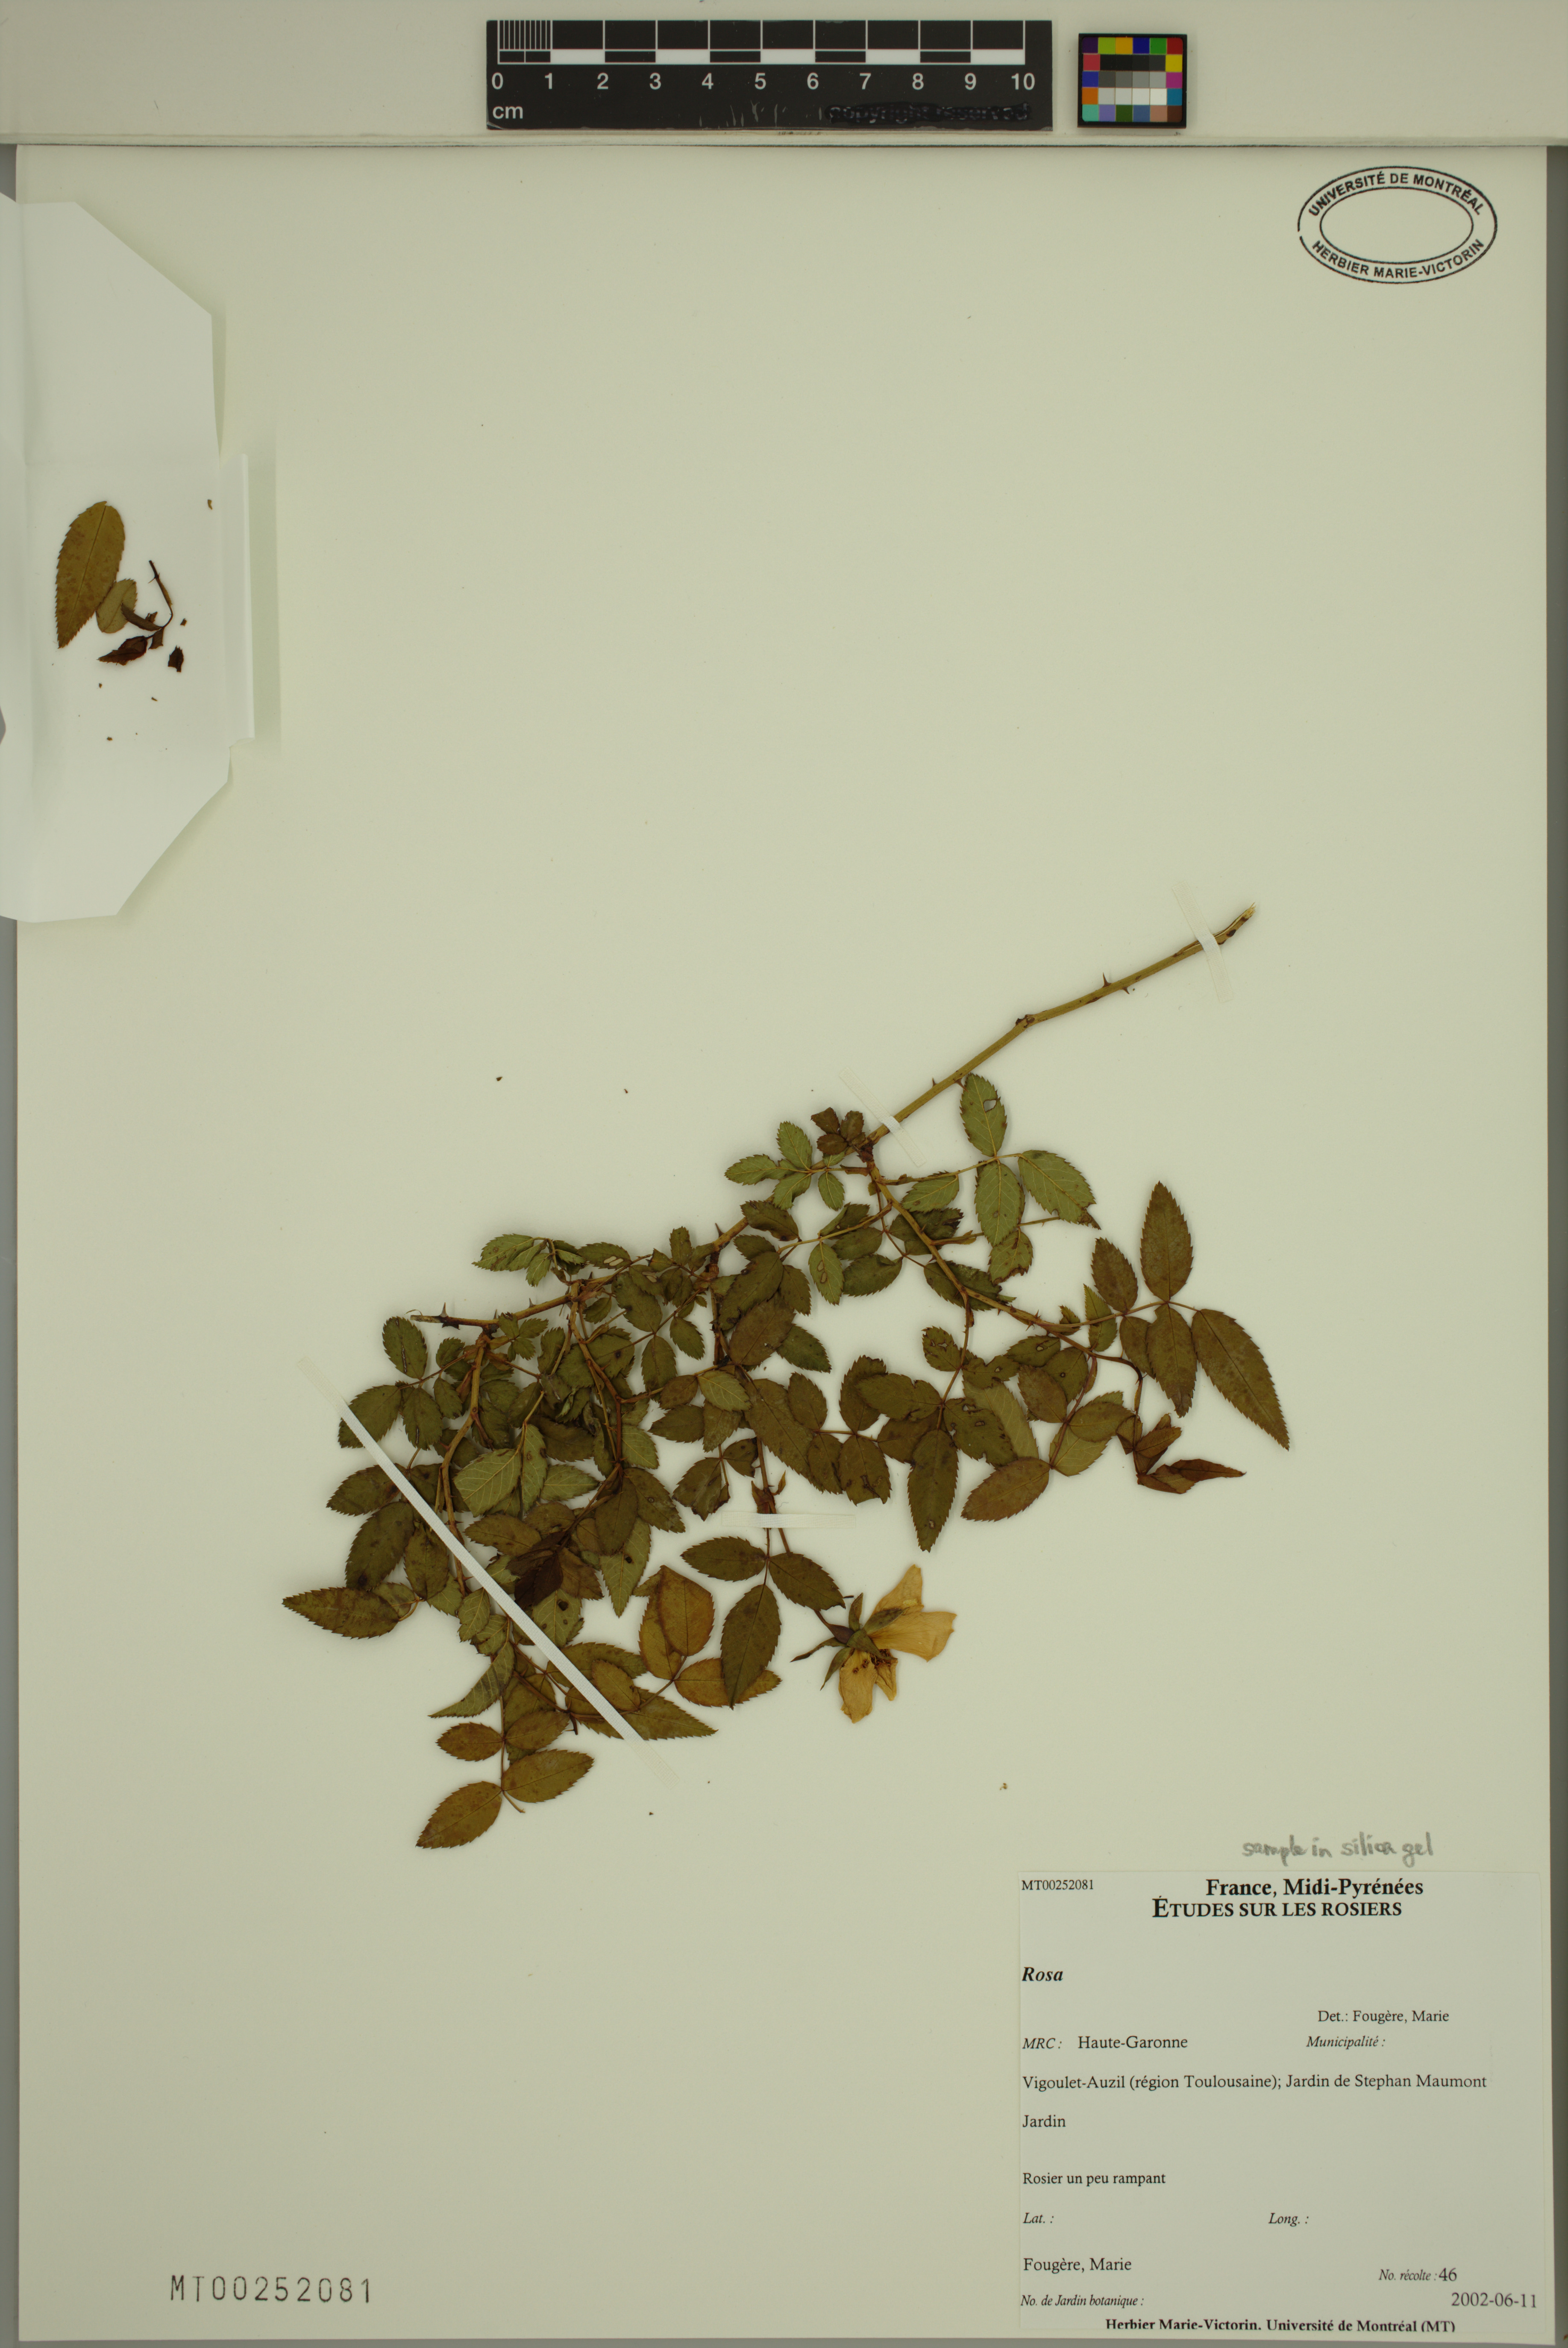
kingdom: Plantae
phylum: Tracheophyta
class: Magnoliopsida
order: Rosales
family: Rosaceae
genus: Rosa
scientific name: Rosa
